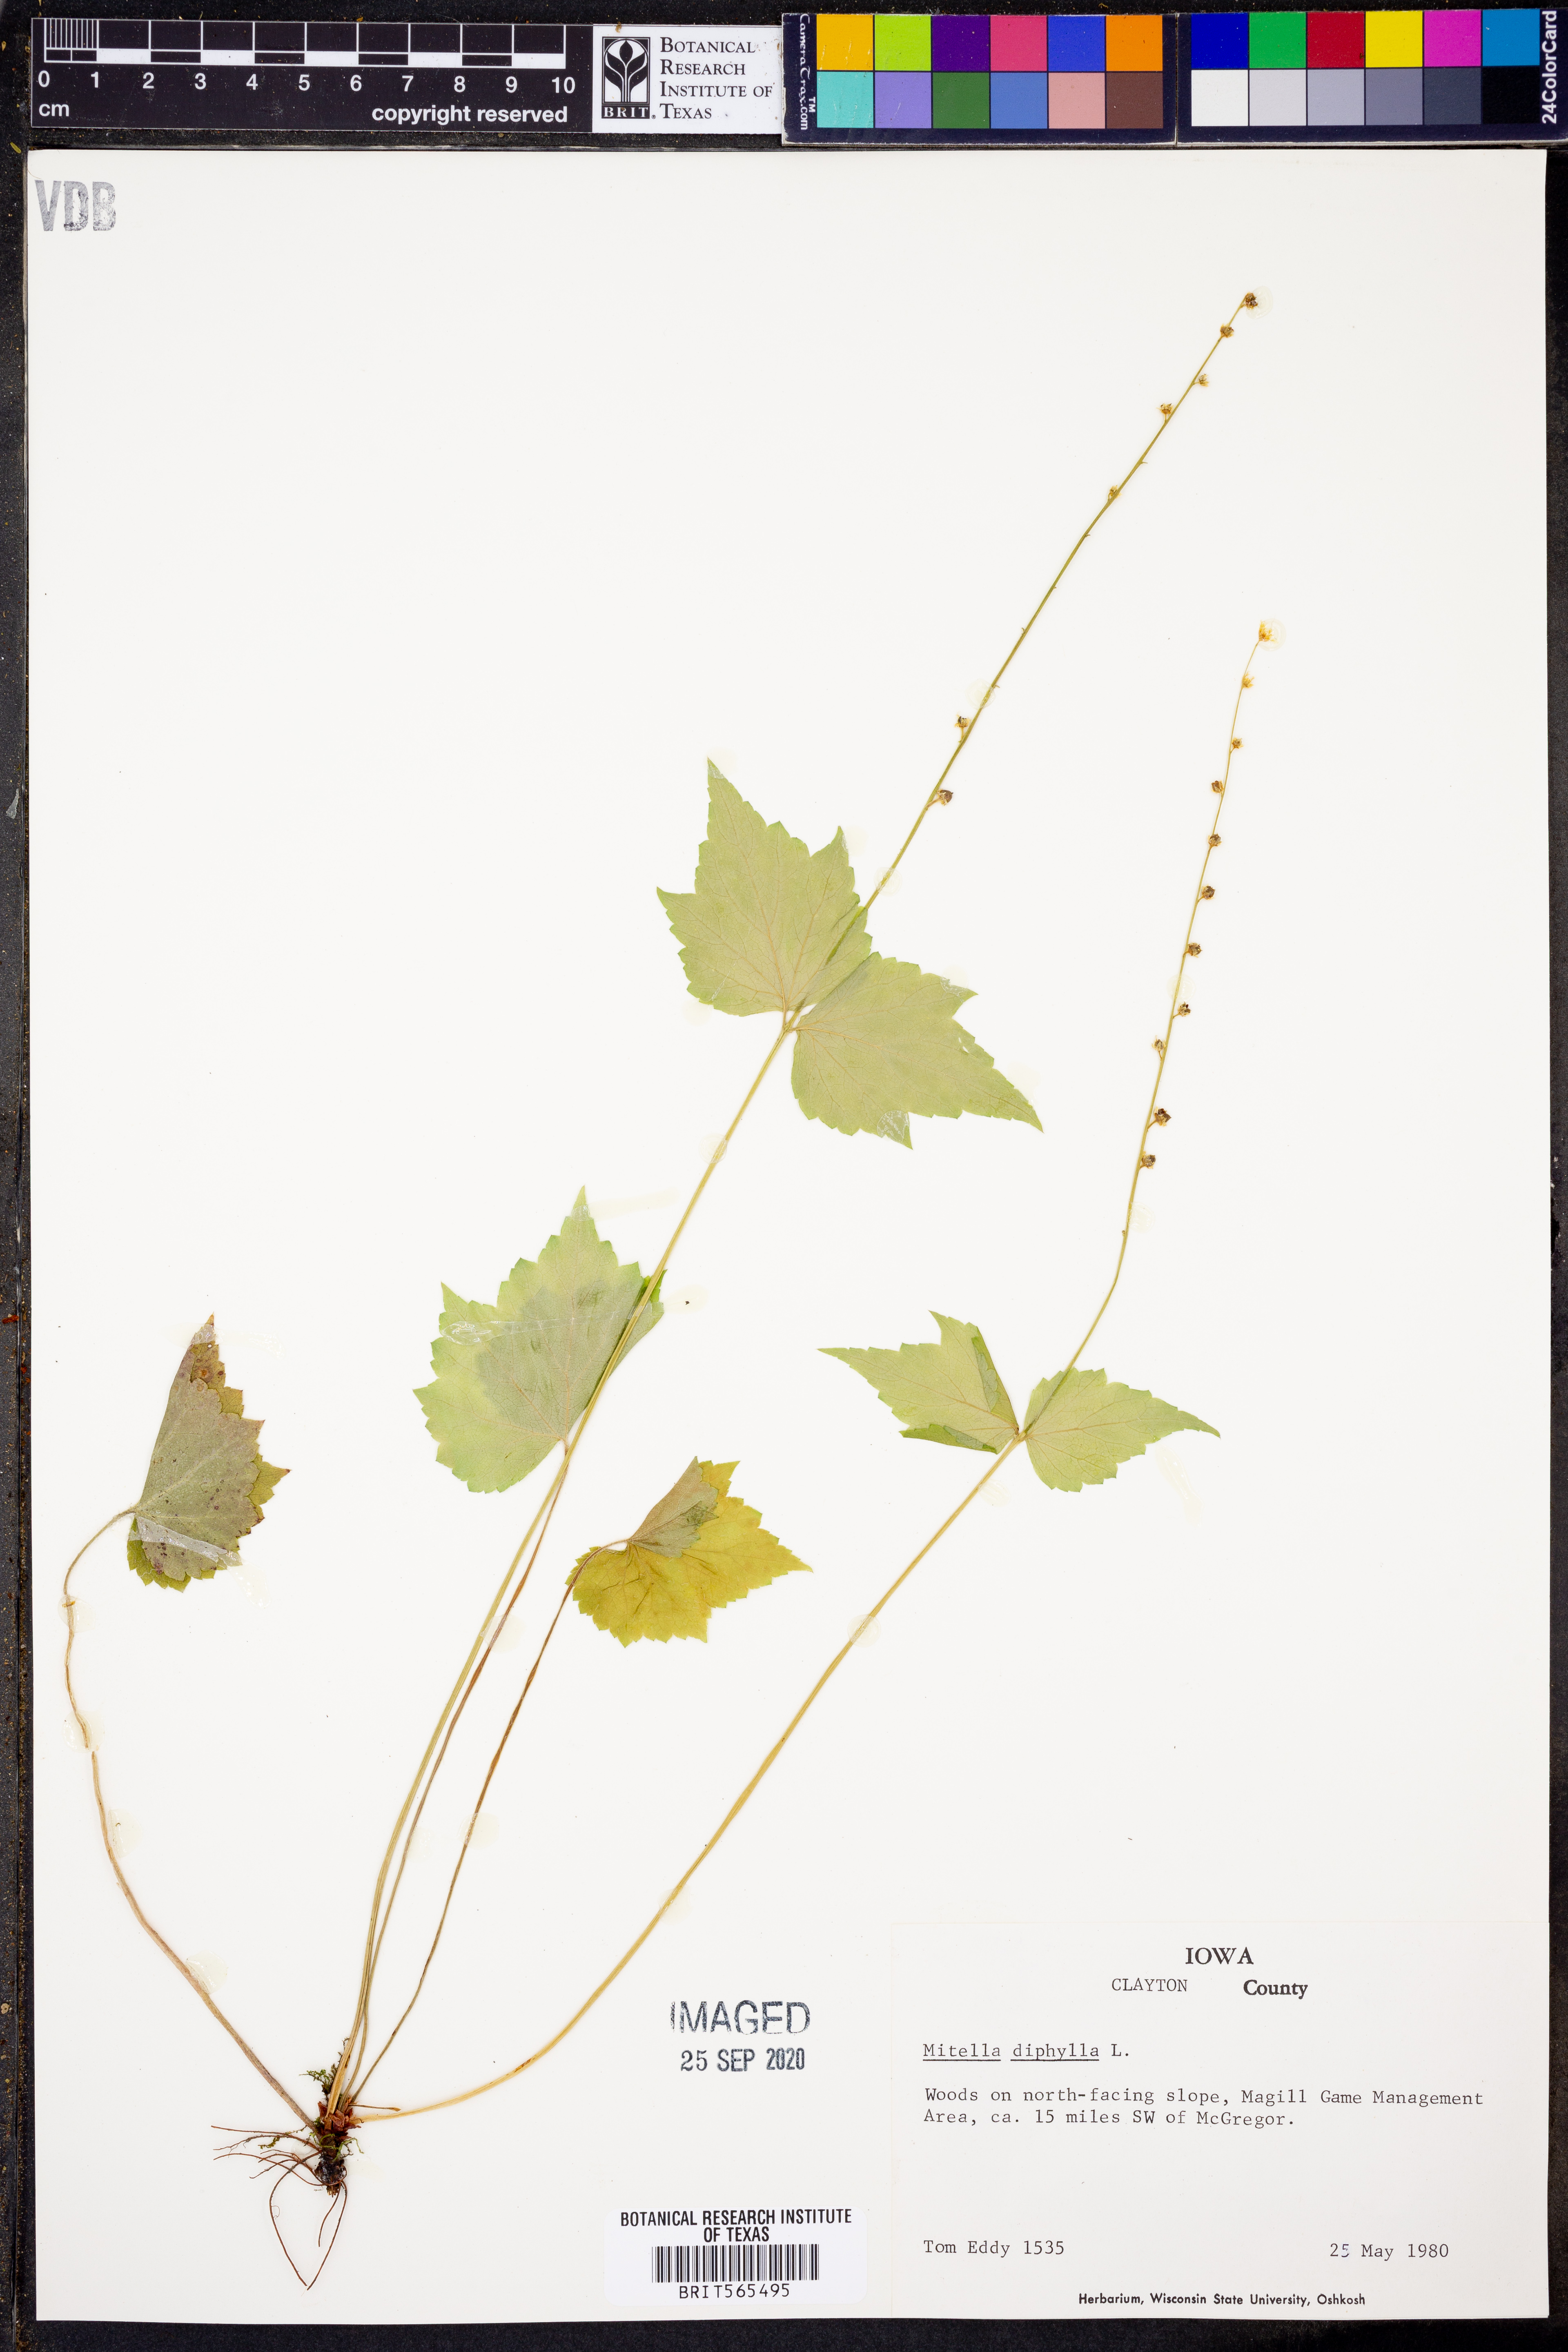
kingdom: Plantae
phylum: Tracheophyta
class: Magnoliopsida
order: Saxifragales
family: Saxifragaceae
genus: Mitella
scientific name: Mitella diphylla
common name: Coolwort
